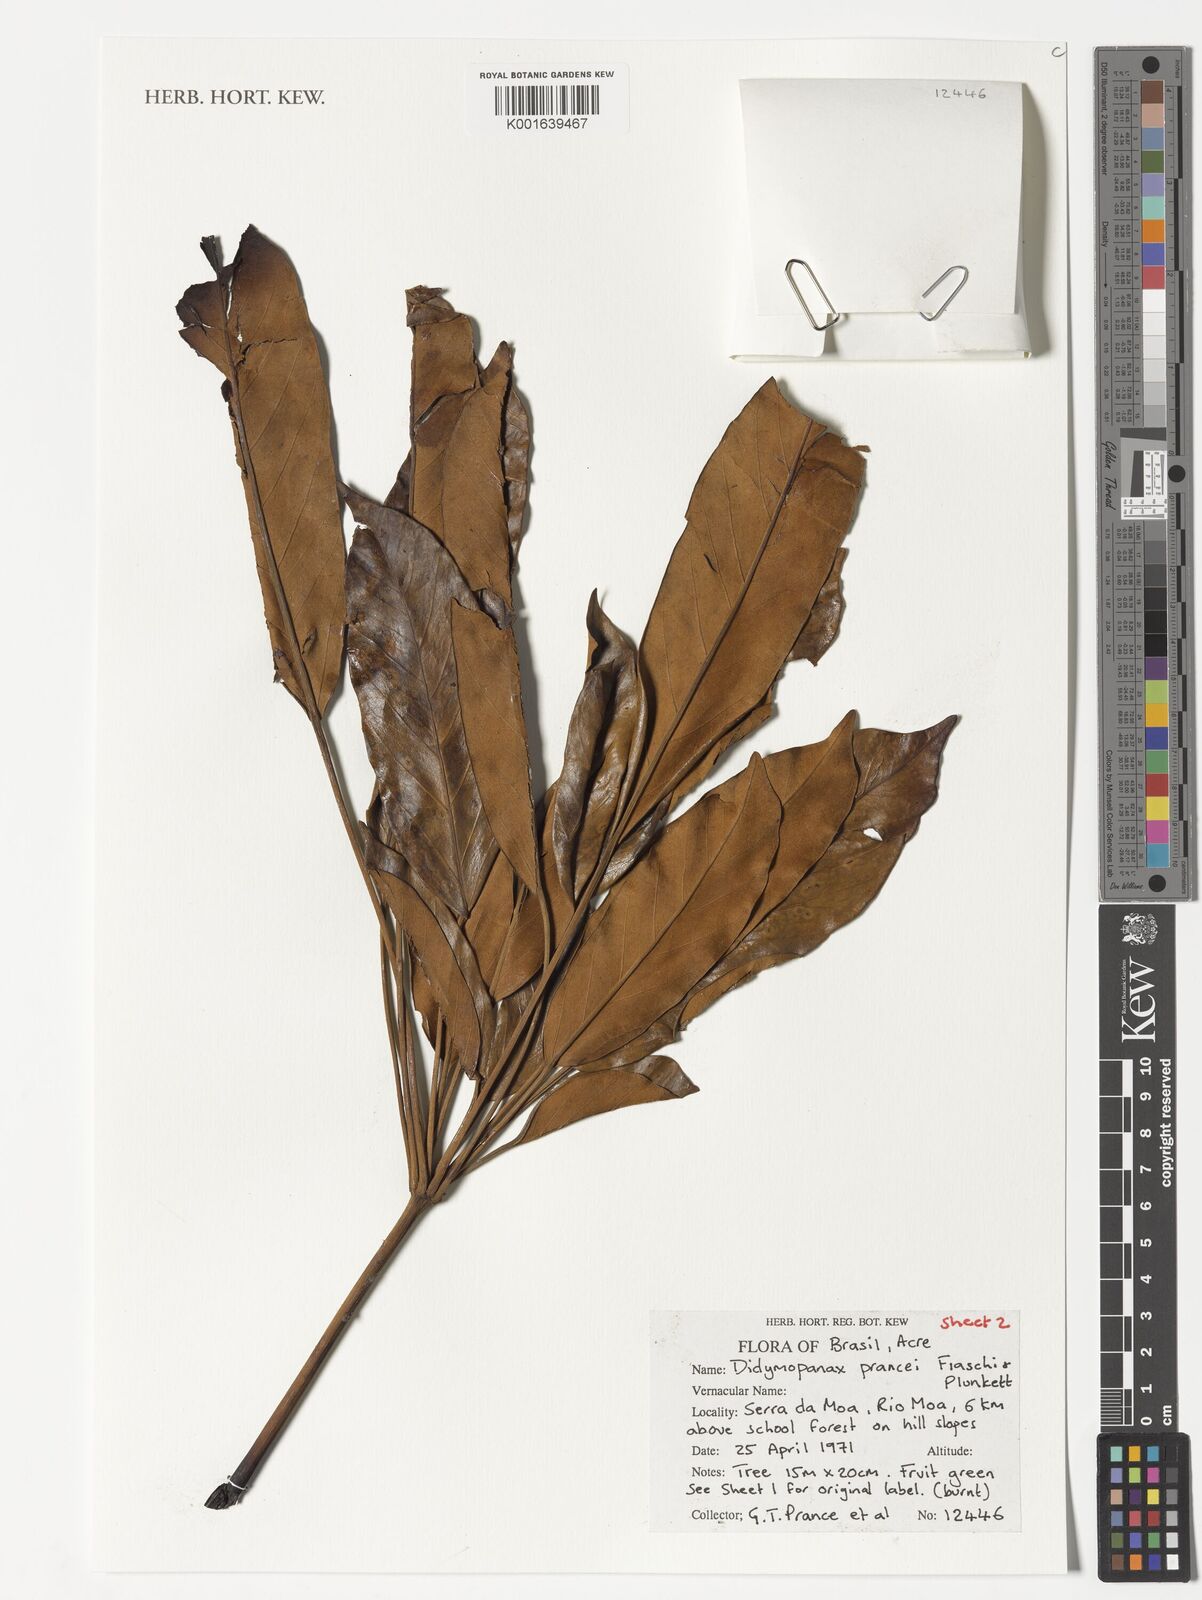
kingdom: Plantae
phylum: Tracheophyta
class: Magnoliopsida
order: Apiales
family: Araliaceae
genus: Didymopanax
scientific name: Didymopanax
